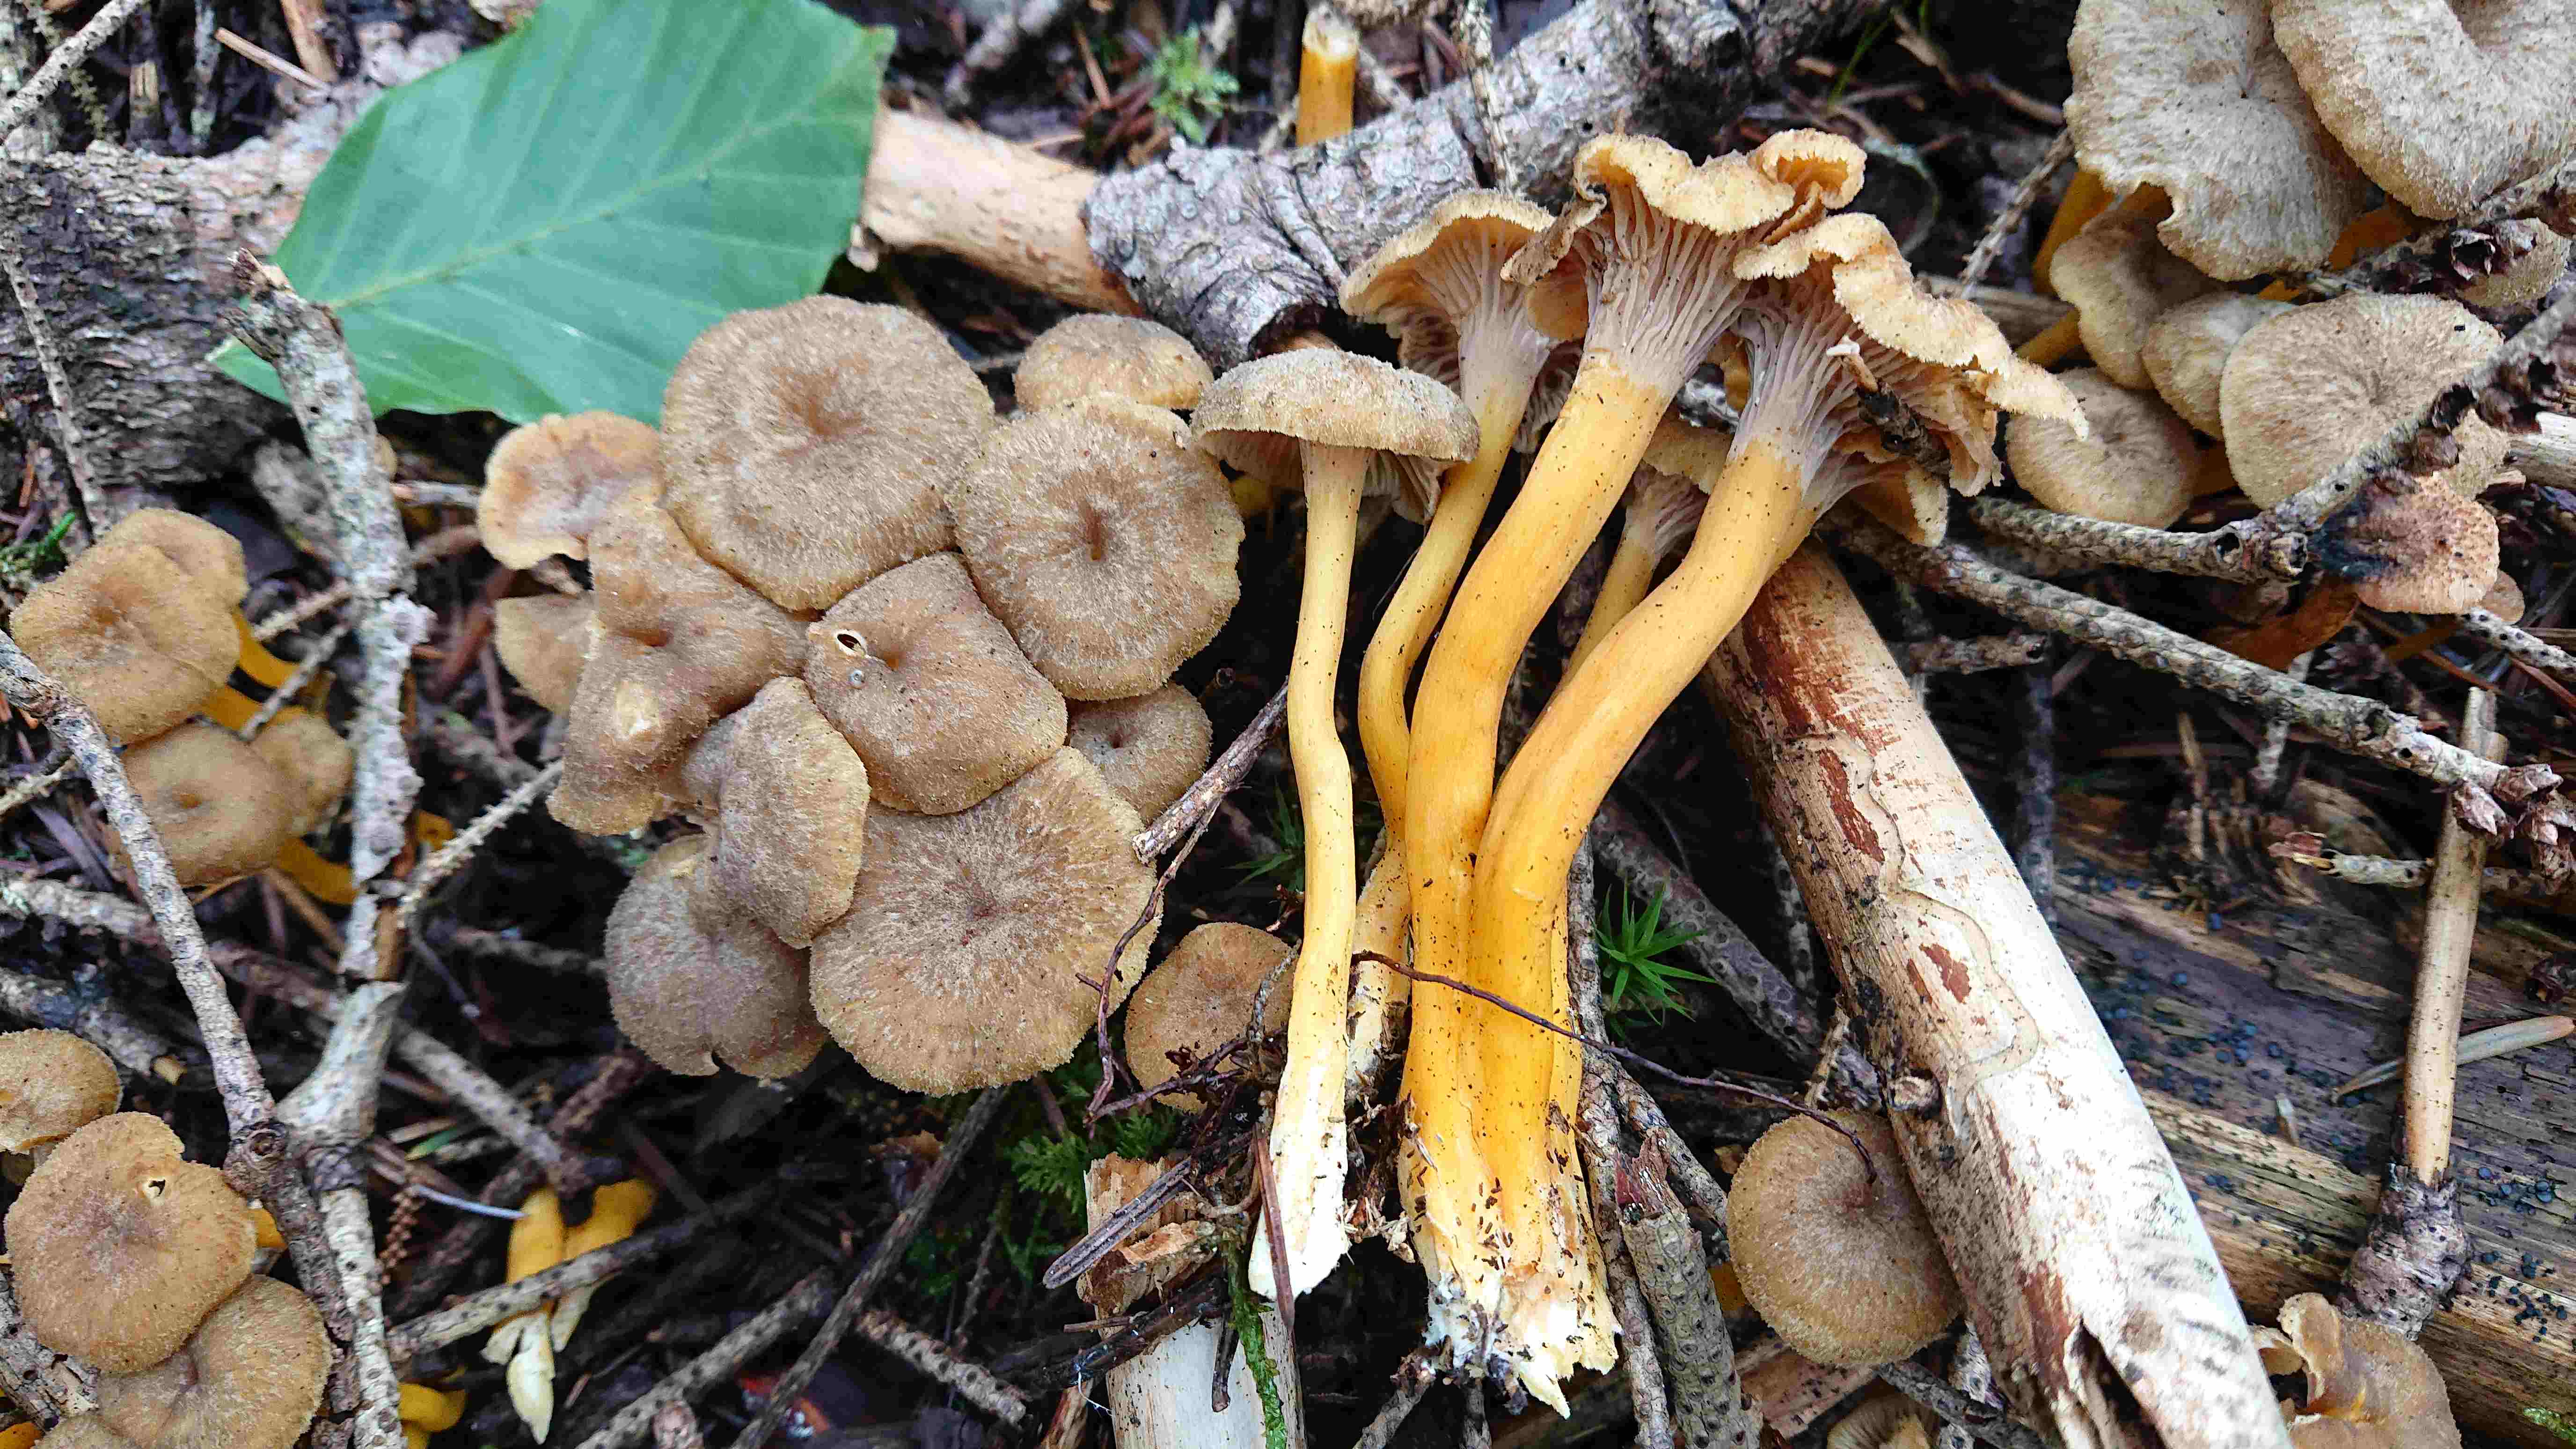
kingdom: Fungi
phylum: Basidiomycota
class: Agaricomycetes
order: Cantharellales
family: Hydnaceae
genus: Craterellus
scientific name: Craterellus tubaeformis
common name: tragt-kantarel
